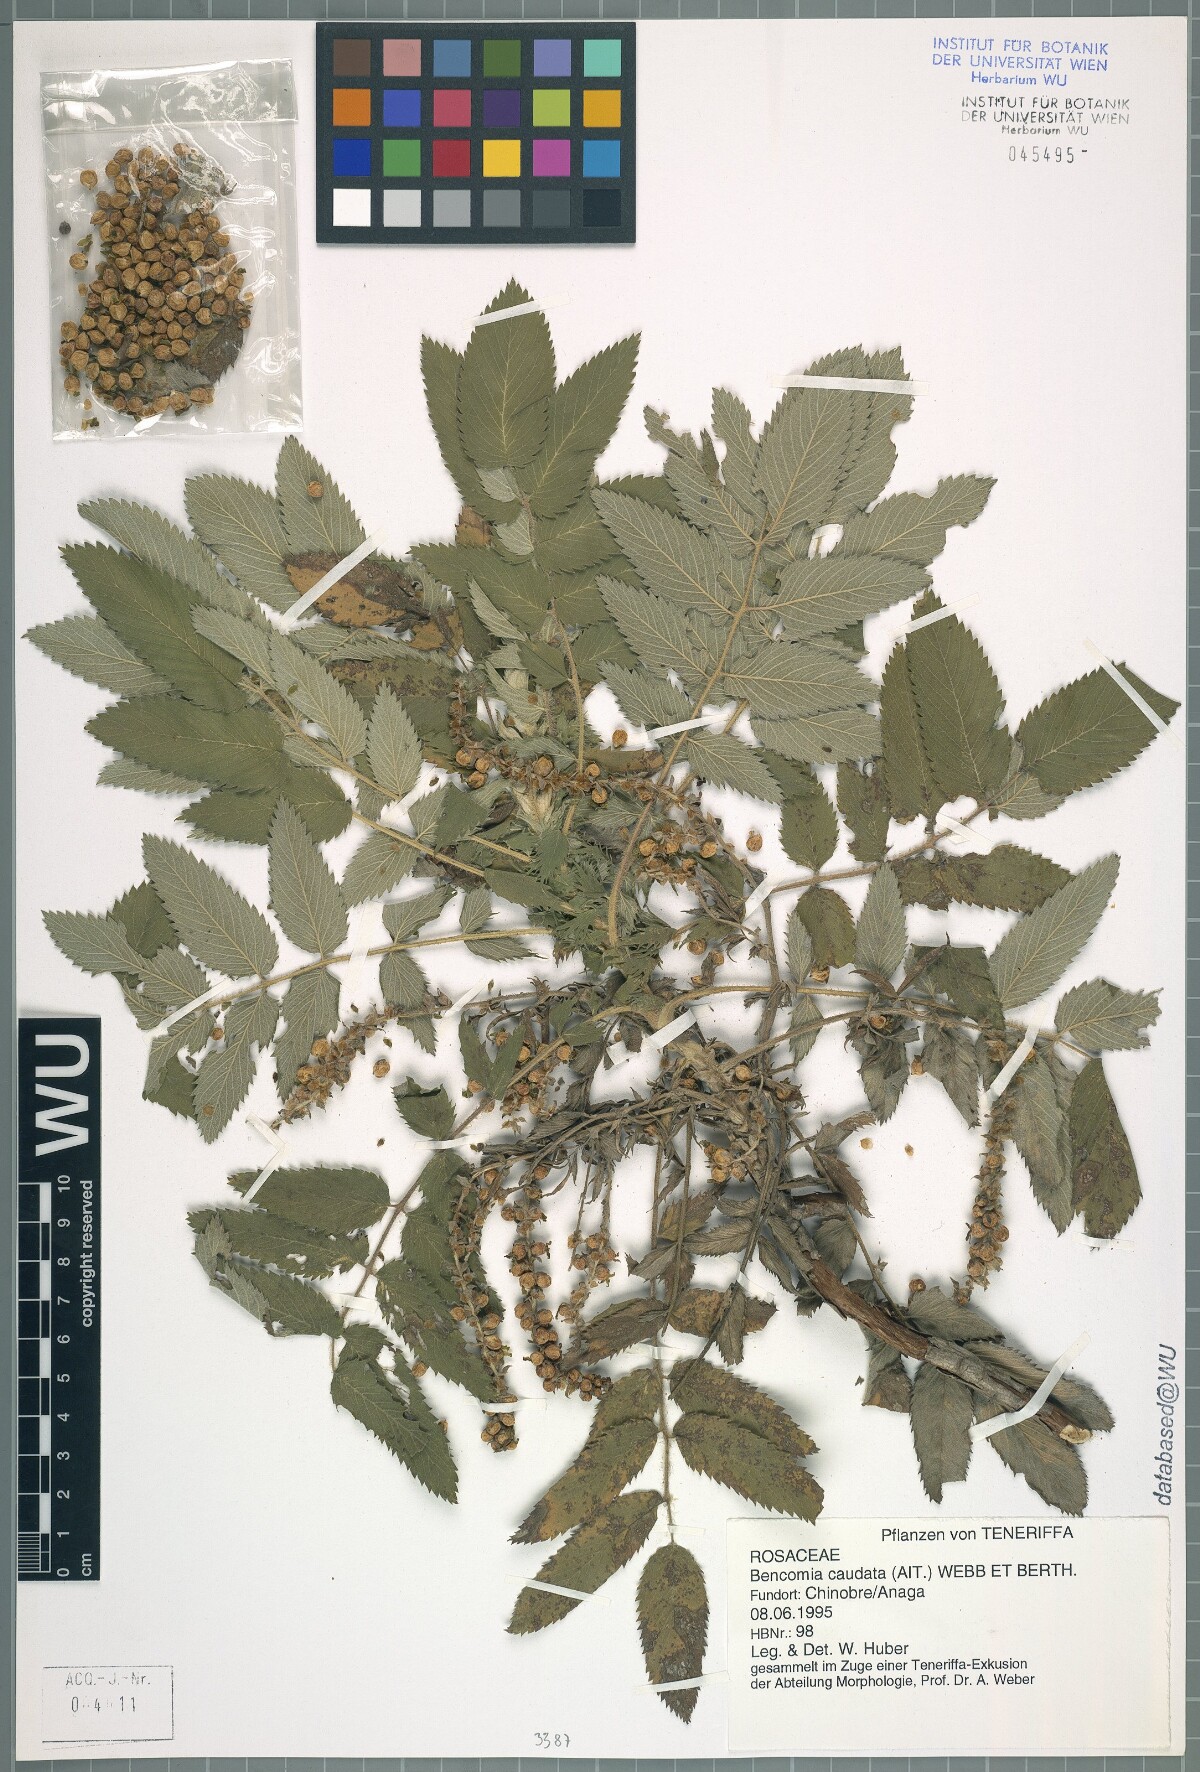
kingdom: Plantae
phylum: Tracheophyta
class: Magnoliopsida
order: Rosales
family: Rosaceae
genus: Bencomia
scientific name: Bencomia caudata
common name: Bencomia
